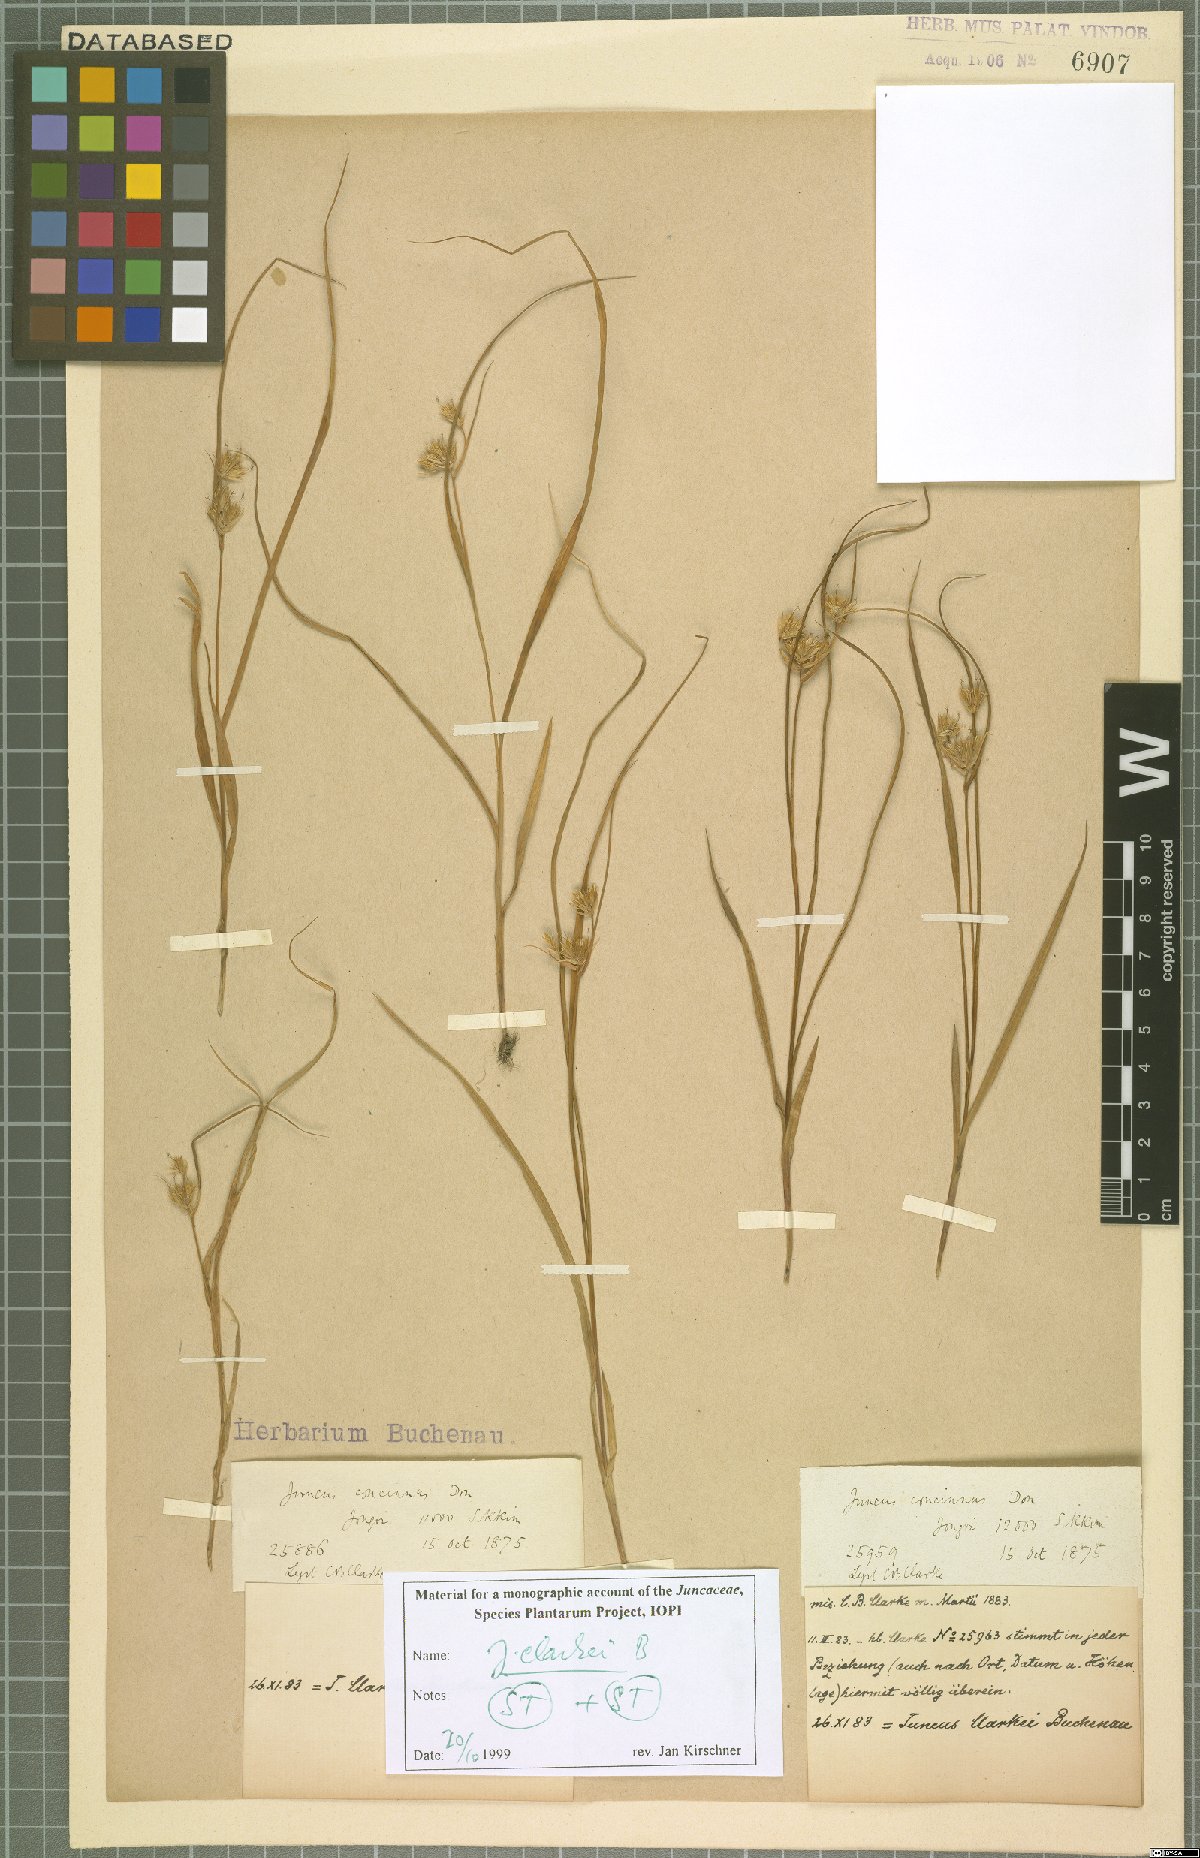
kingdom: Plantae
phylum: Tracheophyta
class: Liliopsida
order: Poales
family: Juncaceae
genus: Juncus
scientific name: Juncus clarkei
